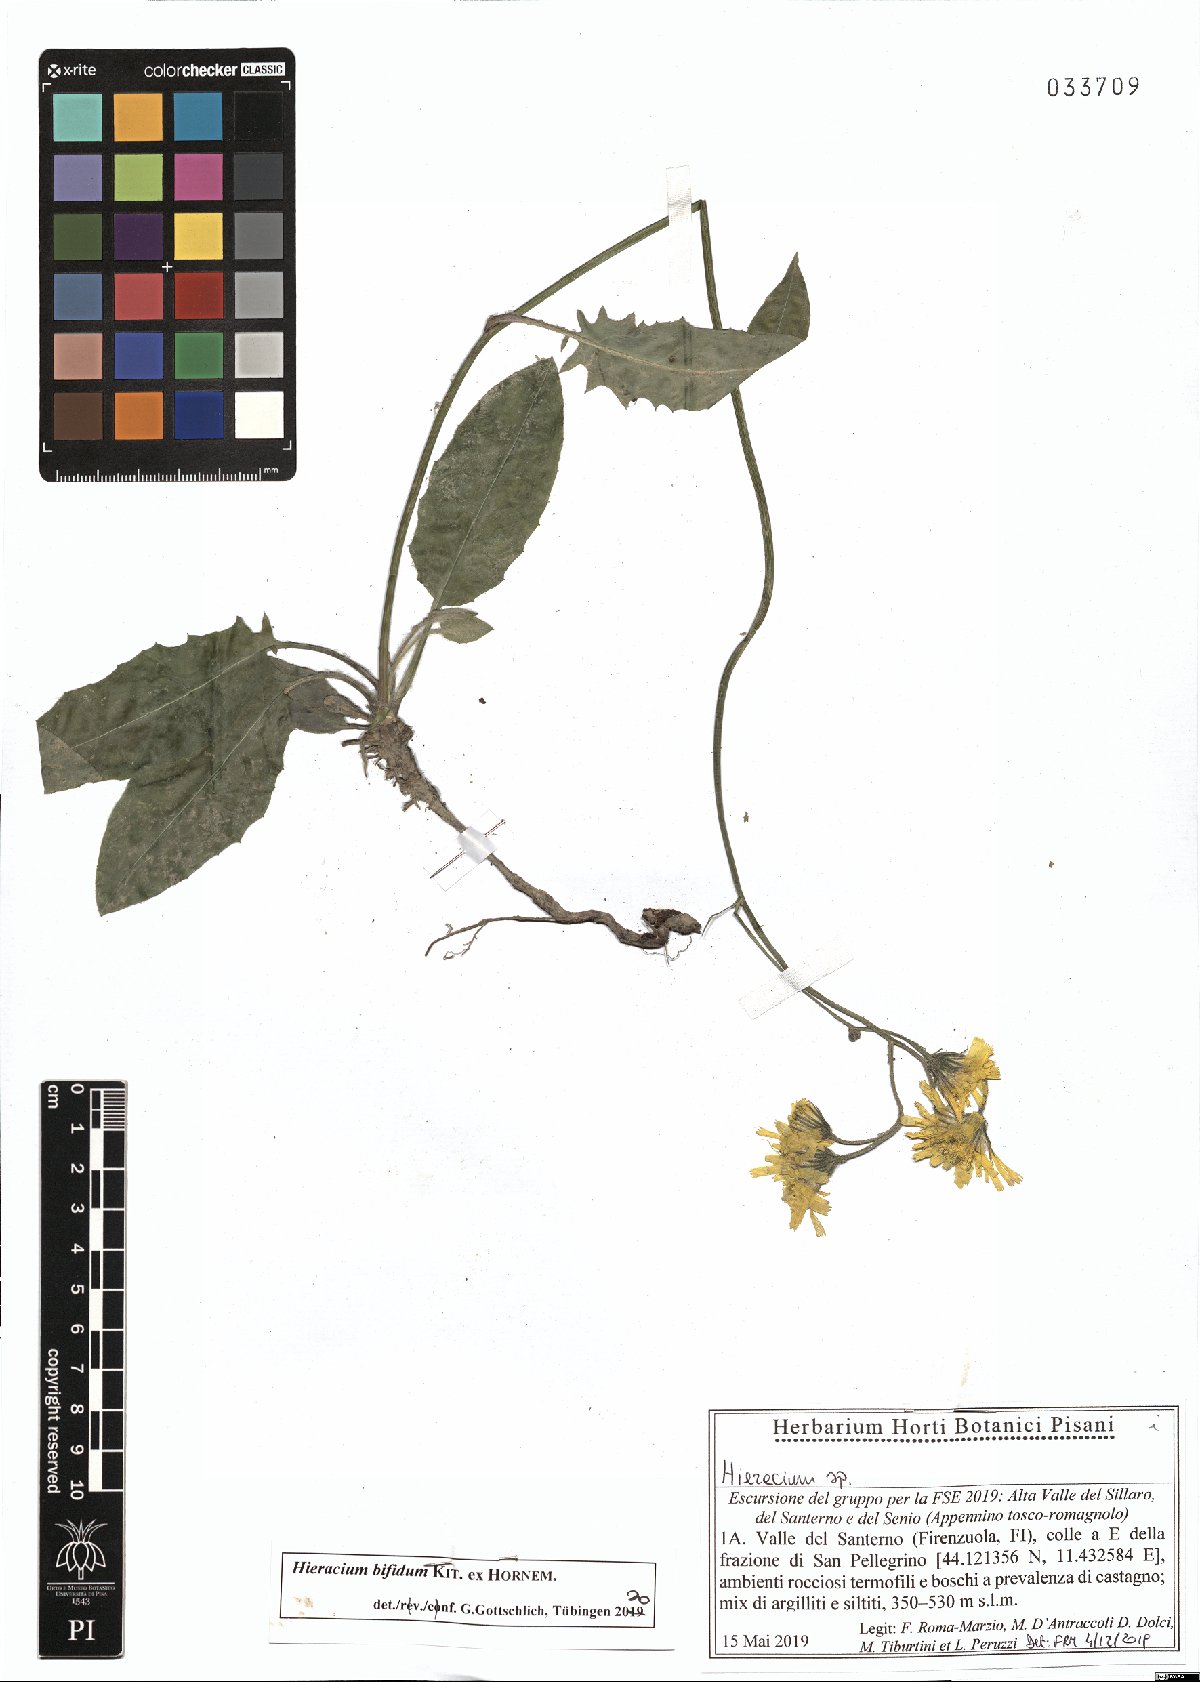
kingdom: Plantae
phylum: Tracheophyta
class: Magnoliopsida
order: Asterales
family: Asteraceae
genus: Hieracium
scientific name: Hieracium bifidum
